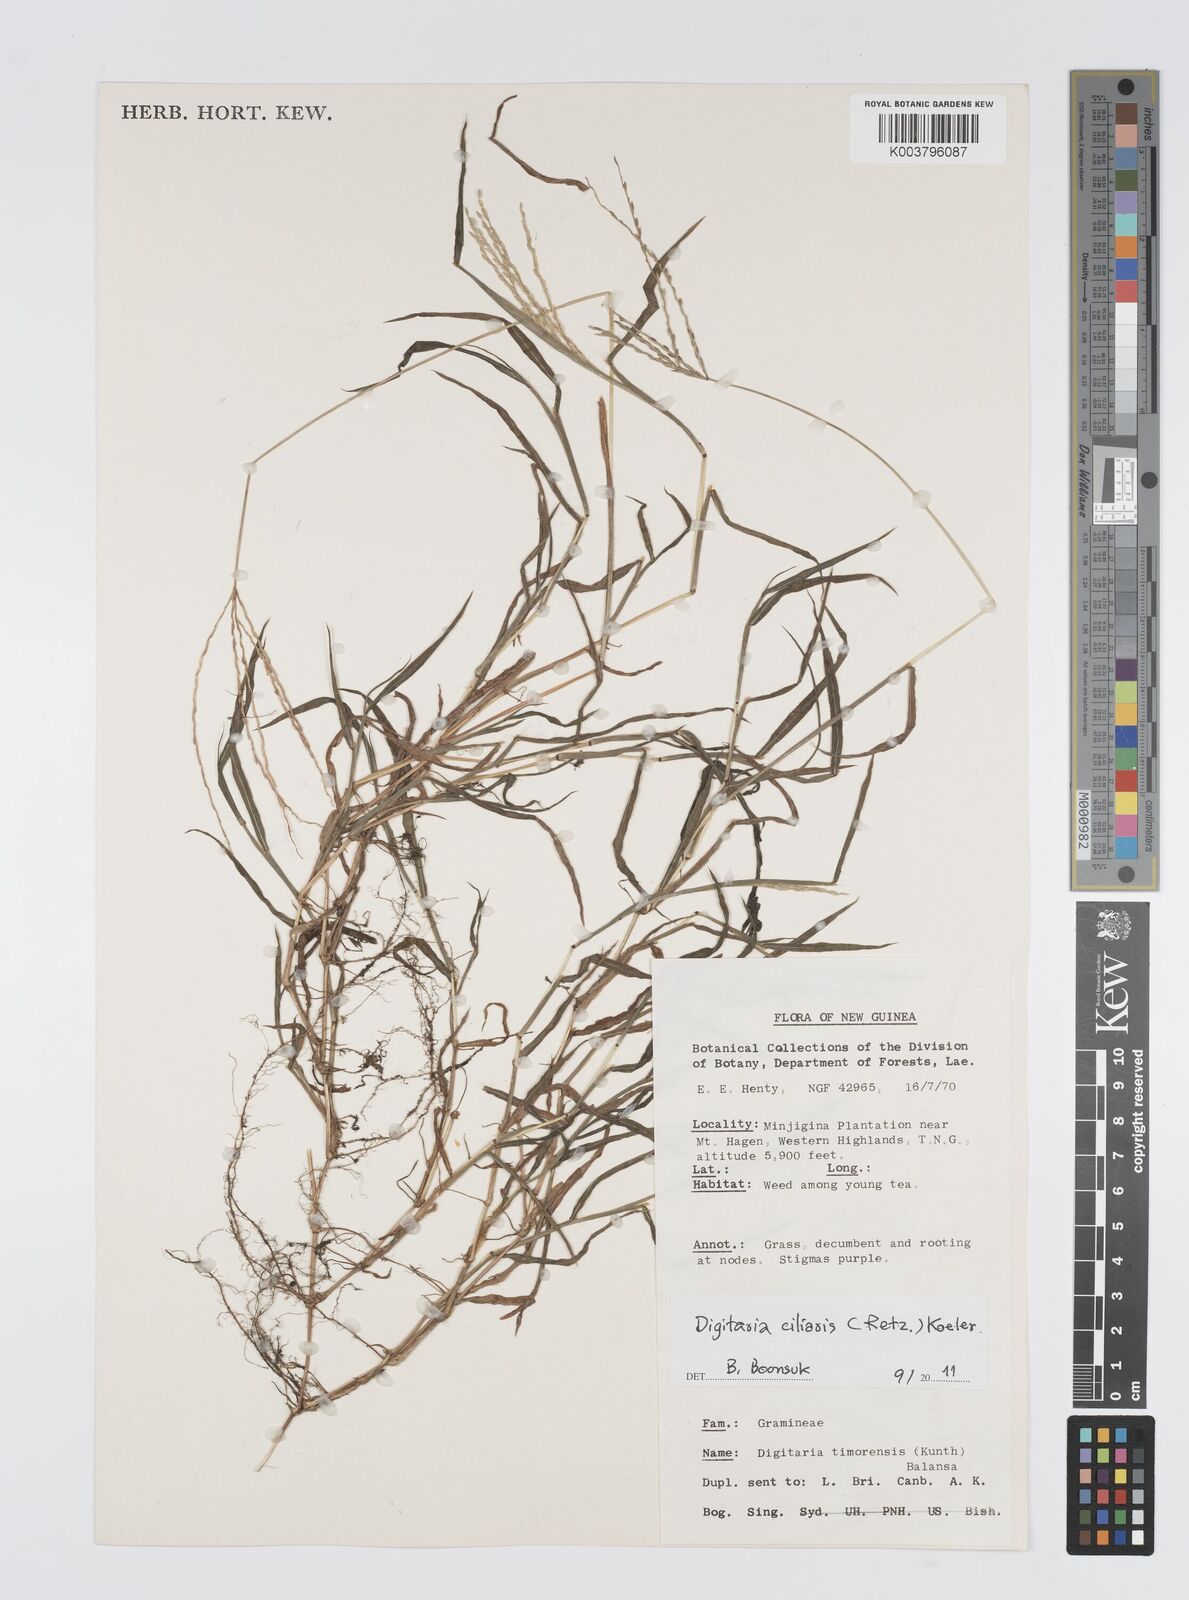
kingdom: Plantae
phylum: Tracheophyta
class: Liliopsida
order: Poales
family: Poaceae
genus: Digitaria
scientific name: Digitaria ciliaris
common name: Tropical finger-grass
